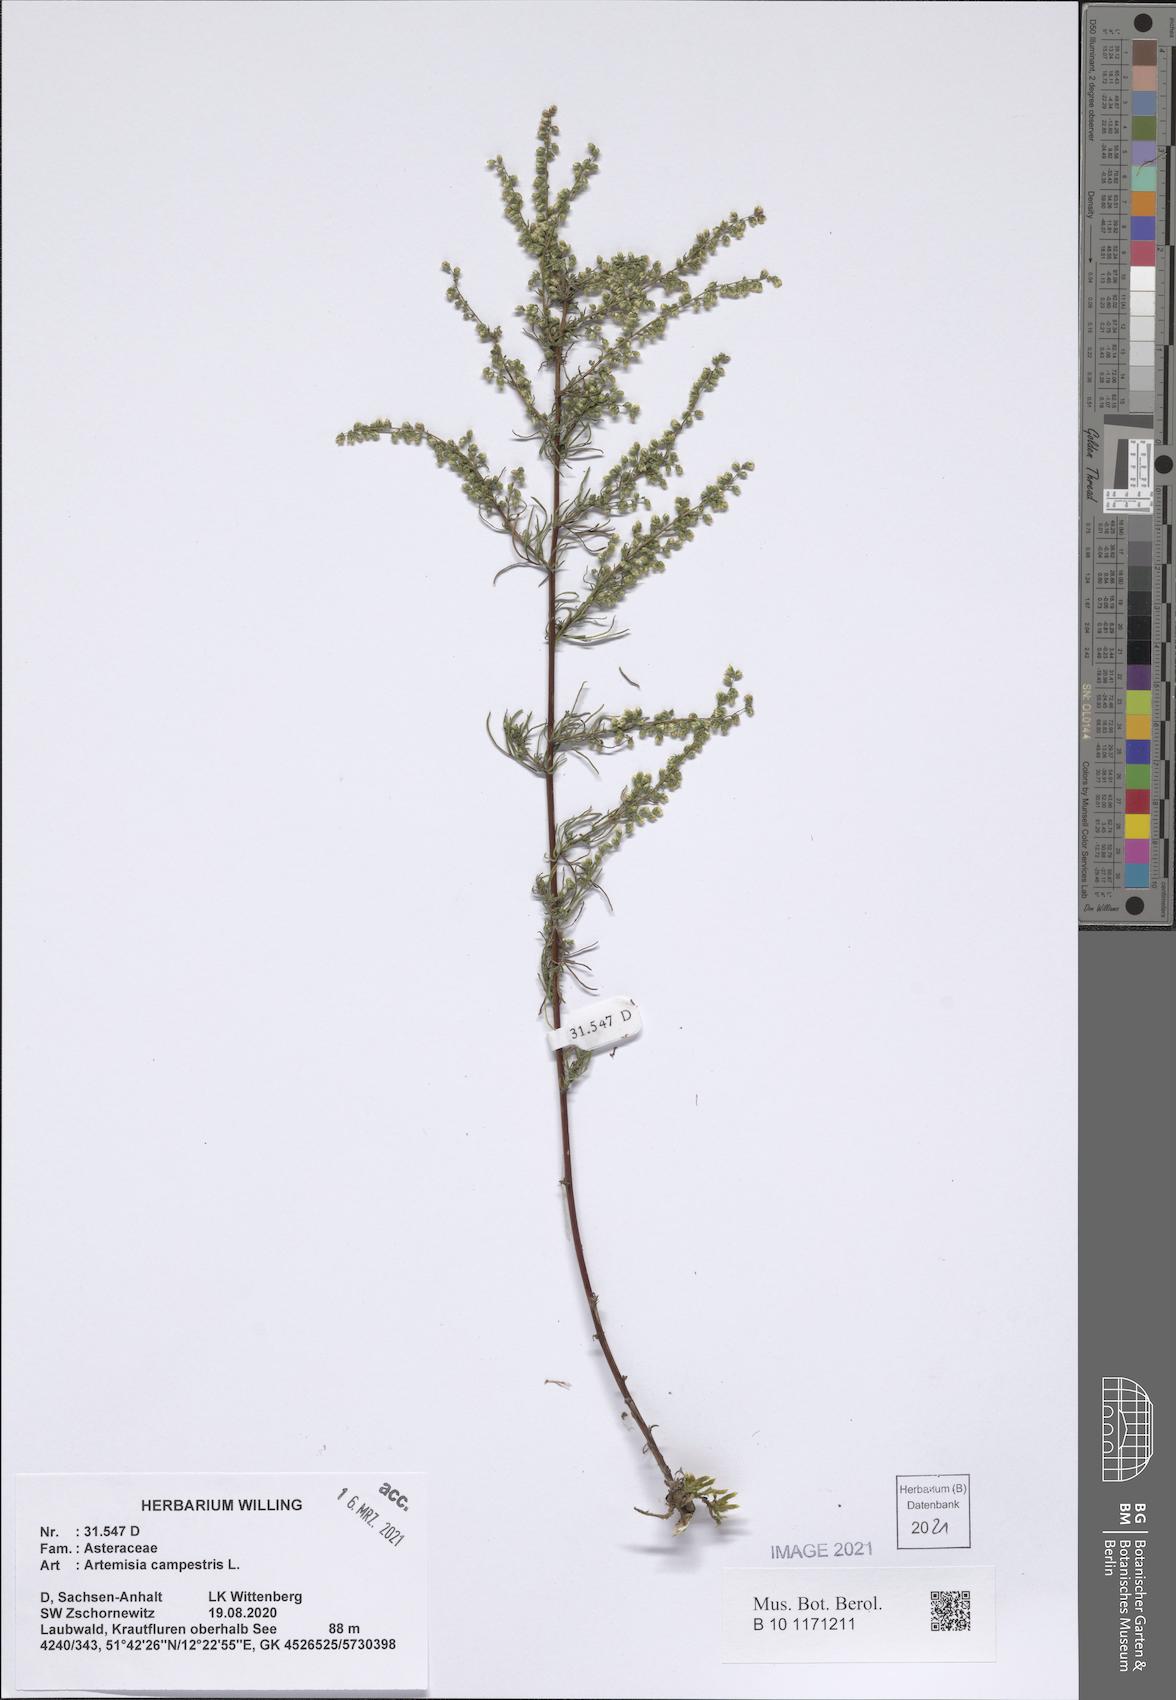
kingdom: Plantae
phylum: Tracheophyta
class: Magnoliopsida
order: Asterales
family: Asteraceae
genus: Artemisia
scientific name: Artemisia campestris
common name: Field wormwood
